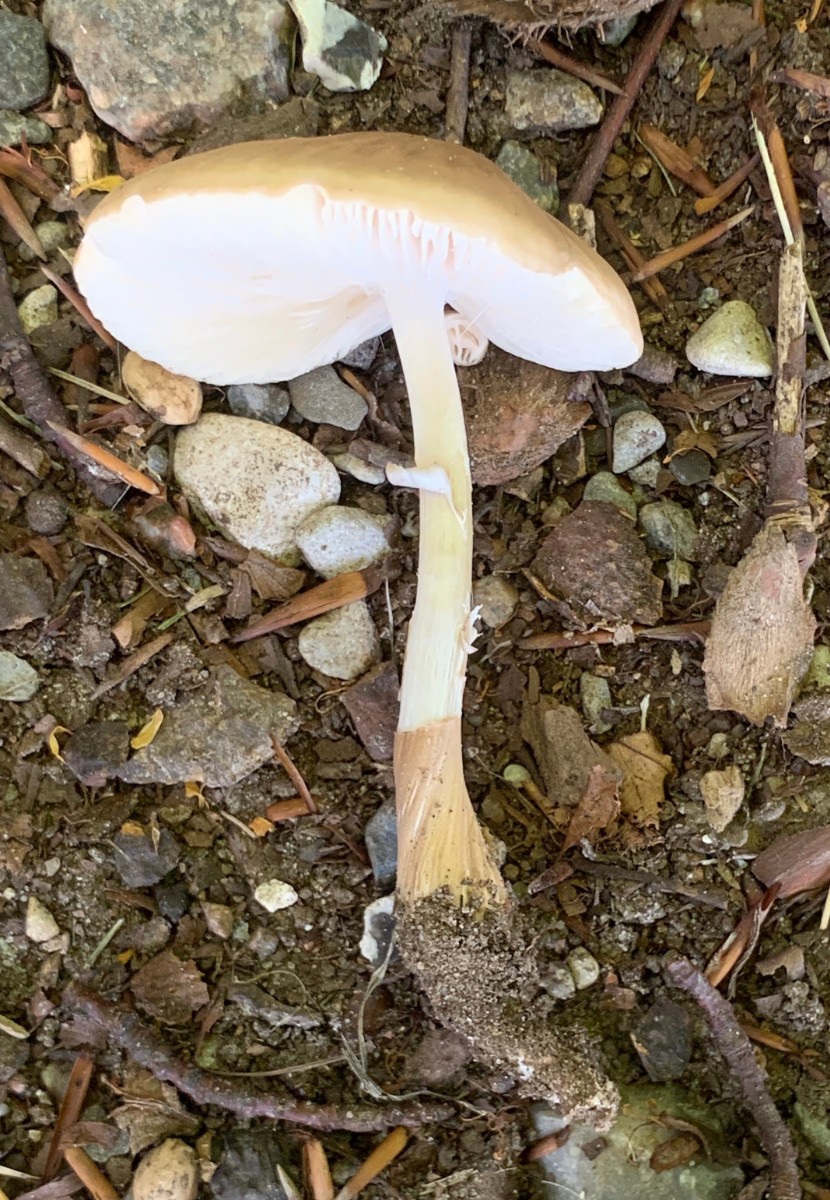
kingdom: Fungi
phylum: Basidiomycota
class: Agaricomycetes
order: Agaricales
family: Physalacriaceae
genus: Hymenopellis
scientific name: Hymenopellis radicata
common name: almindelig pælerodshat
